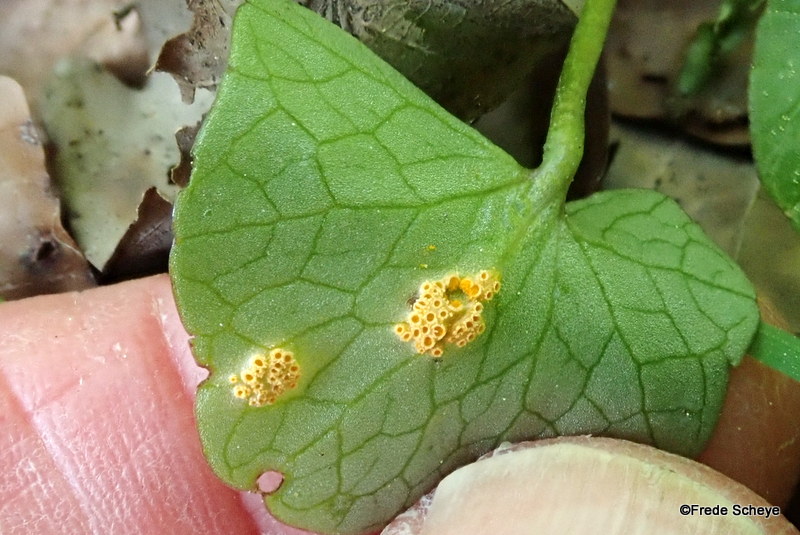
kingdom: Fungi
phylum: Basidiomycota
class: Pucciniomycetes
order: Pucciniales
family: Pucciniaceae
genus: Uromyces
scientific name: Uromyces dactylidis
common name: ranunkel-encellerust
